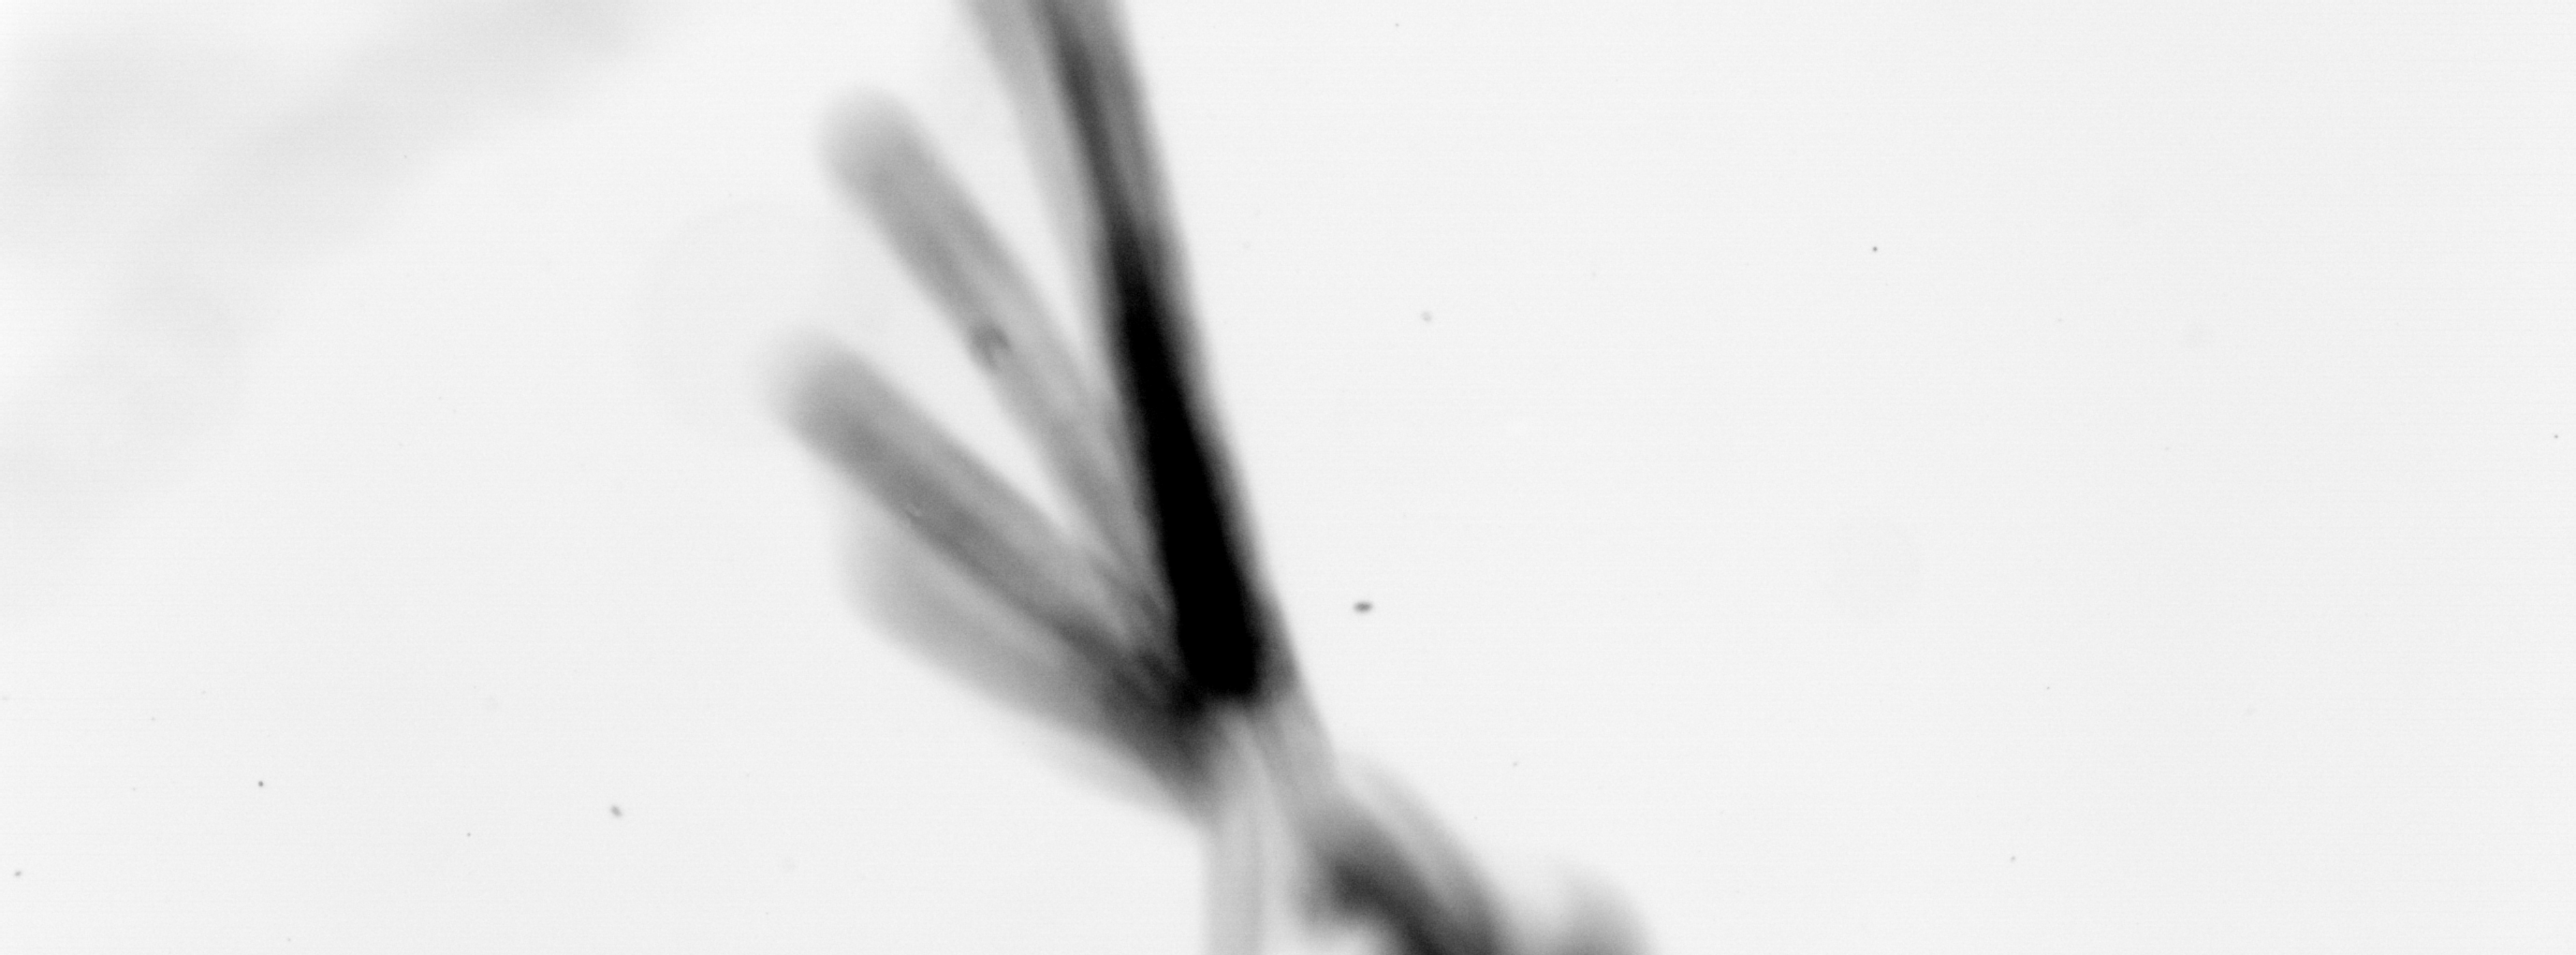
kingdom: Animalia
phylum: Chordata
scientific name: Chordata
